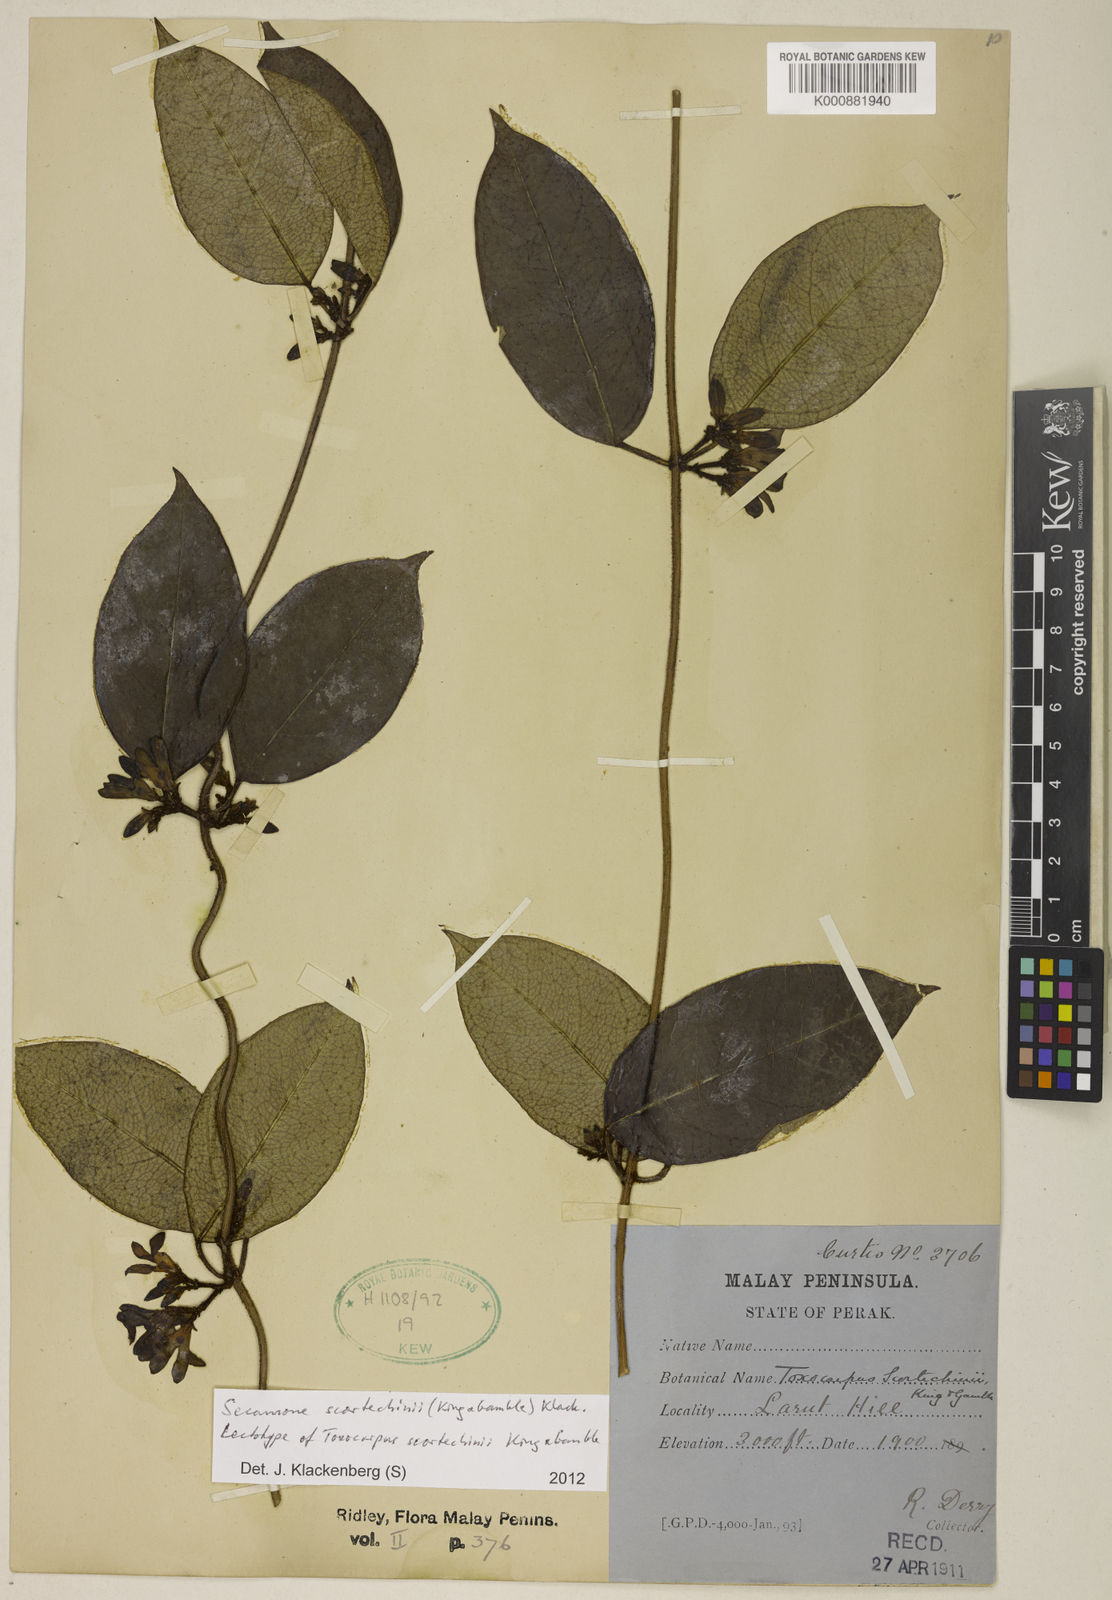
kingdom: Plantae
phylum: Tracheophyta
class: Magnoliopsida
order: Gentianales
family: Apocynaceae
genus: Secamone
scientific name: Secamone scortechinii
